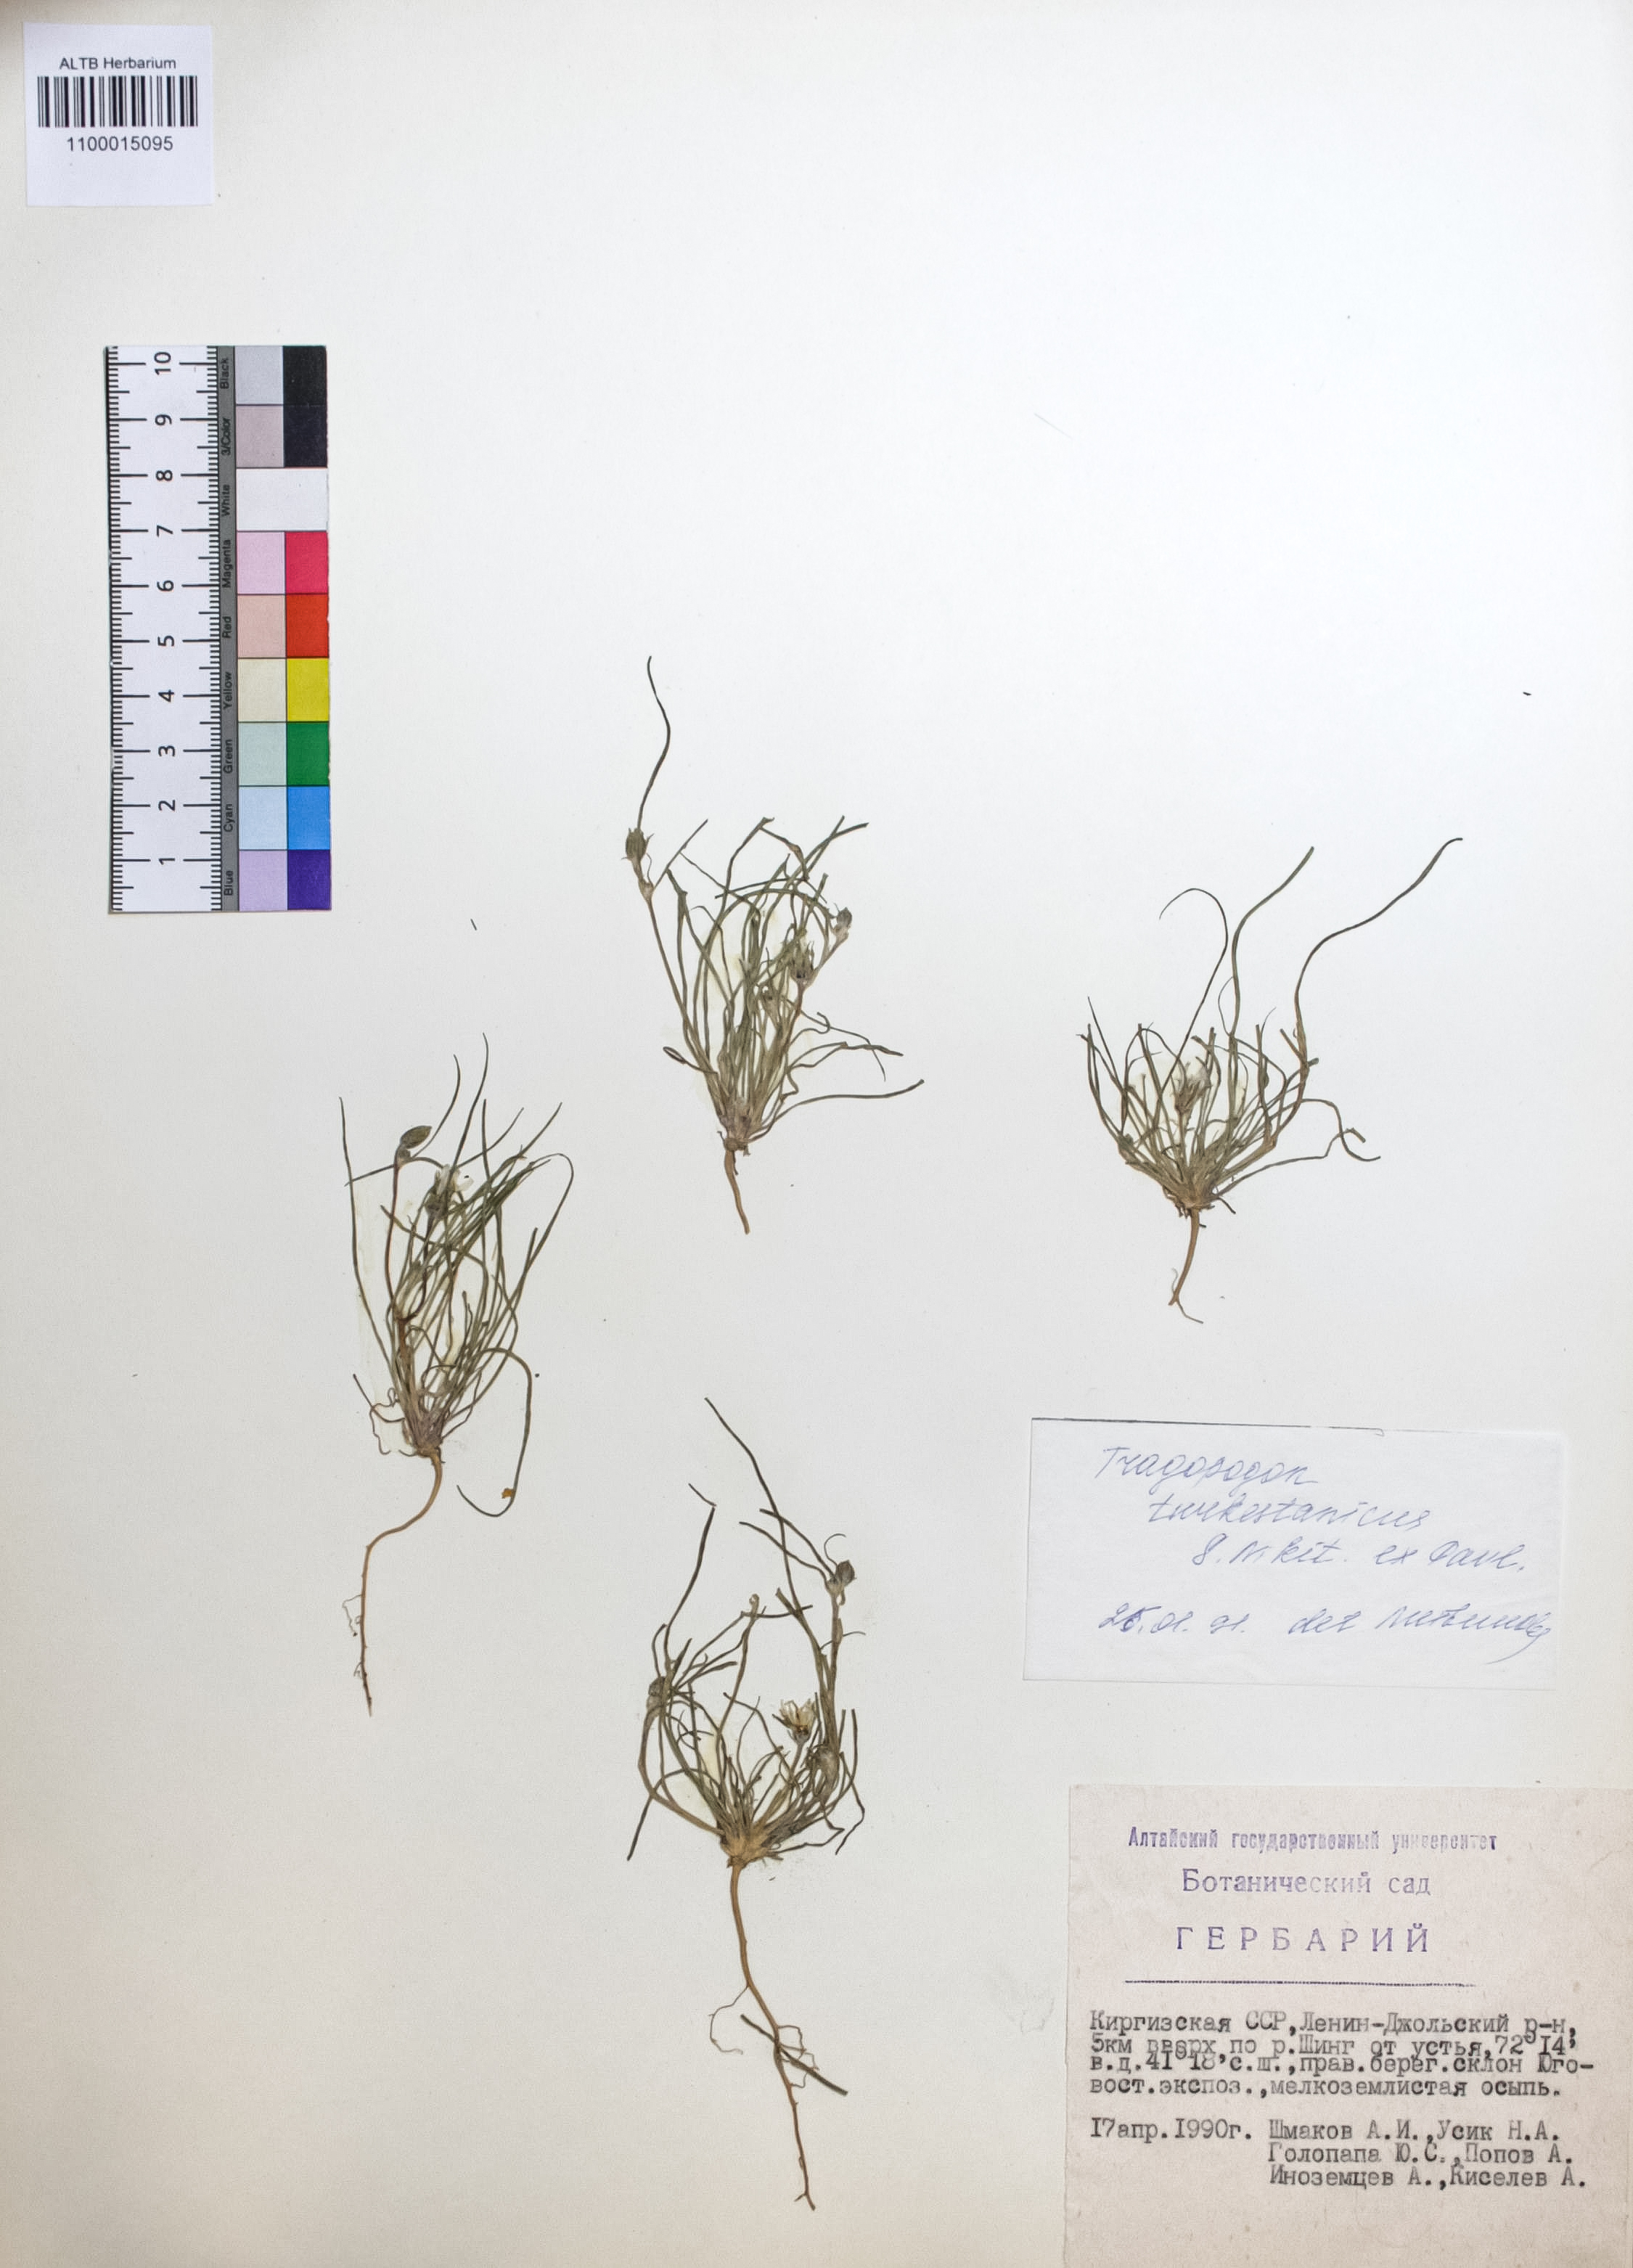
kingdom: Plantae
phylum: Tracheophyta
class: Magnoliopsida
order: Asterales
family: Asteraceae
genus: Tragopogon
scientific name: Tragopogon turkestanicus
